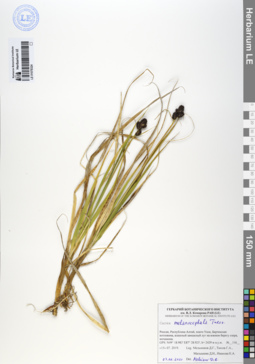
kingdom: Plantae
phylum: Tracheophyta
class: Liliopsida
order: Poales
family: Cyperaceae
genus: Carex
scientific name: Carex melanocephala
